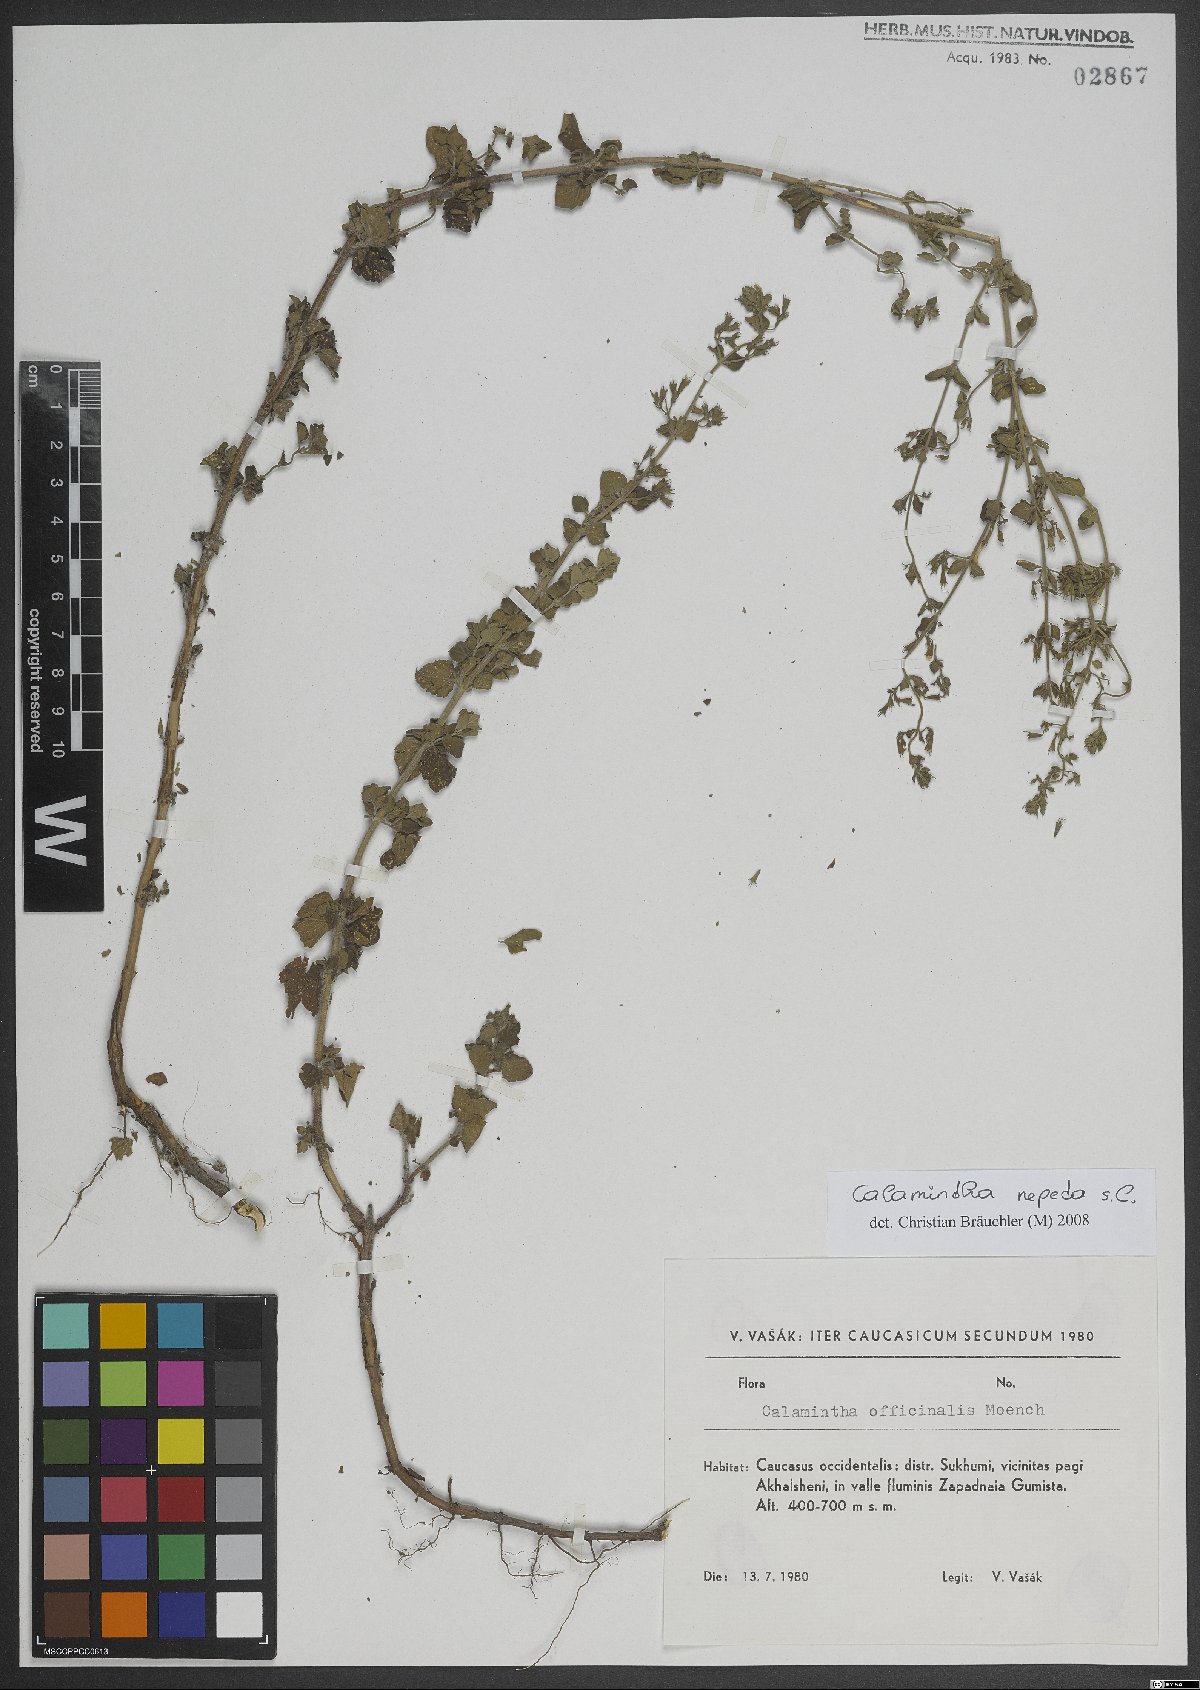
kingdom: Plantae
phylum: Tracheophyta
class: Magnoliopsida
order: Lamiales
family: Lamiaceae
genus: Clinopodium
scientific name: Clinopodium nepeta
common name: Lesser calamint
